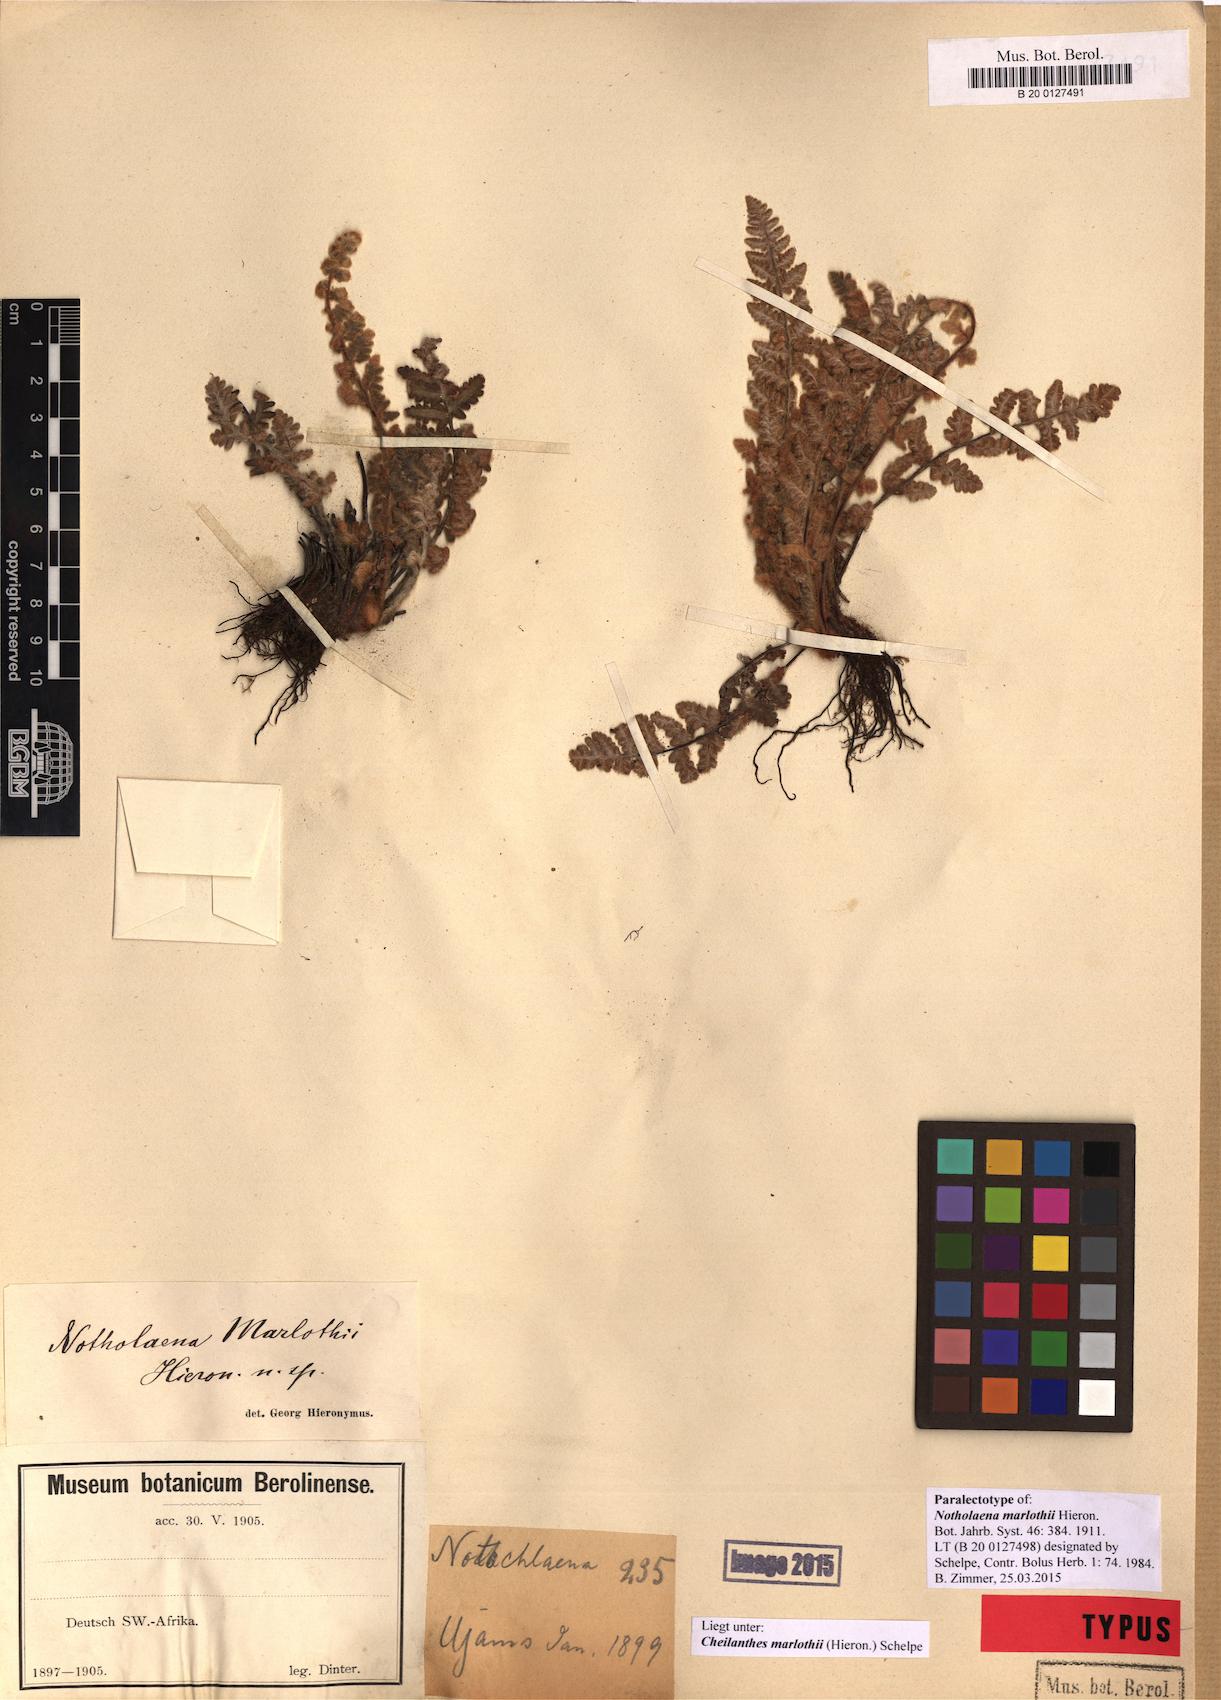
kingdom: Plantae
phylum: Tracheophyta
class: Polypodiopsida
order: Polypodiales
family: Pteridaceae
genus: Cheilanthes
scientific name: Cheilanthes marlothii
